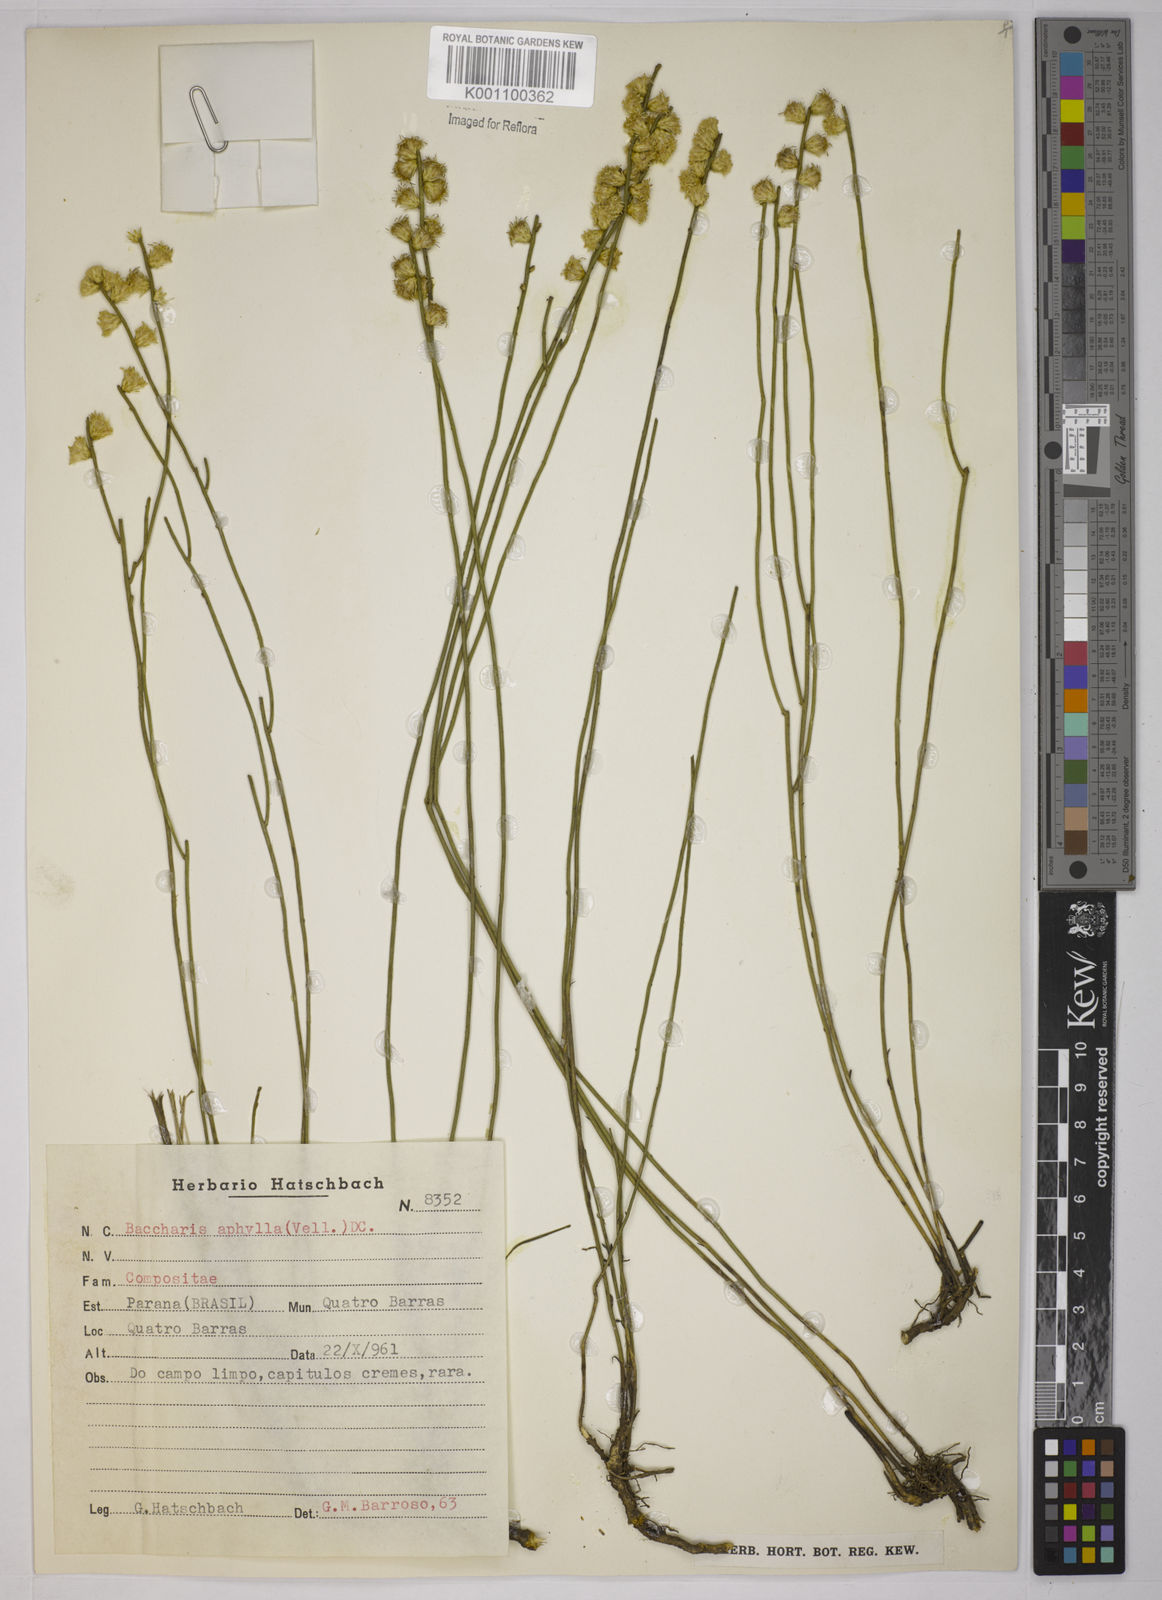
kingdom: Plantae
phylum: Tracheophyta
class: Magnoliopsida
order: Asterales
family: Asteraceae
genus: Baccharis
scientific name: Baccharis aphylla
